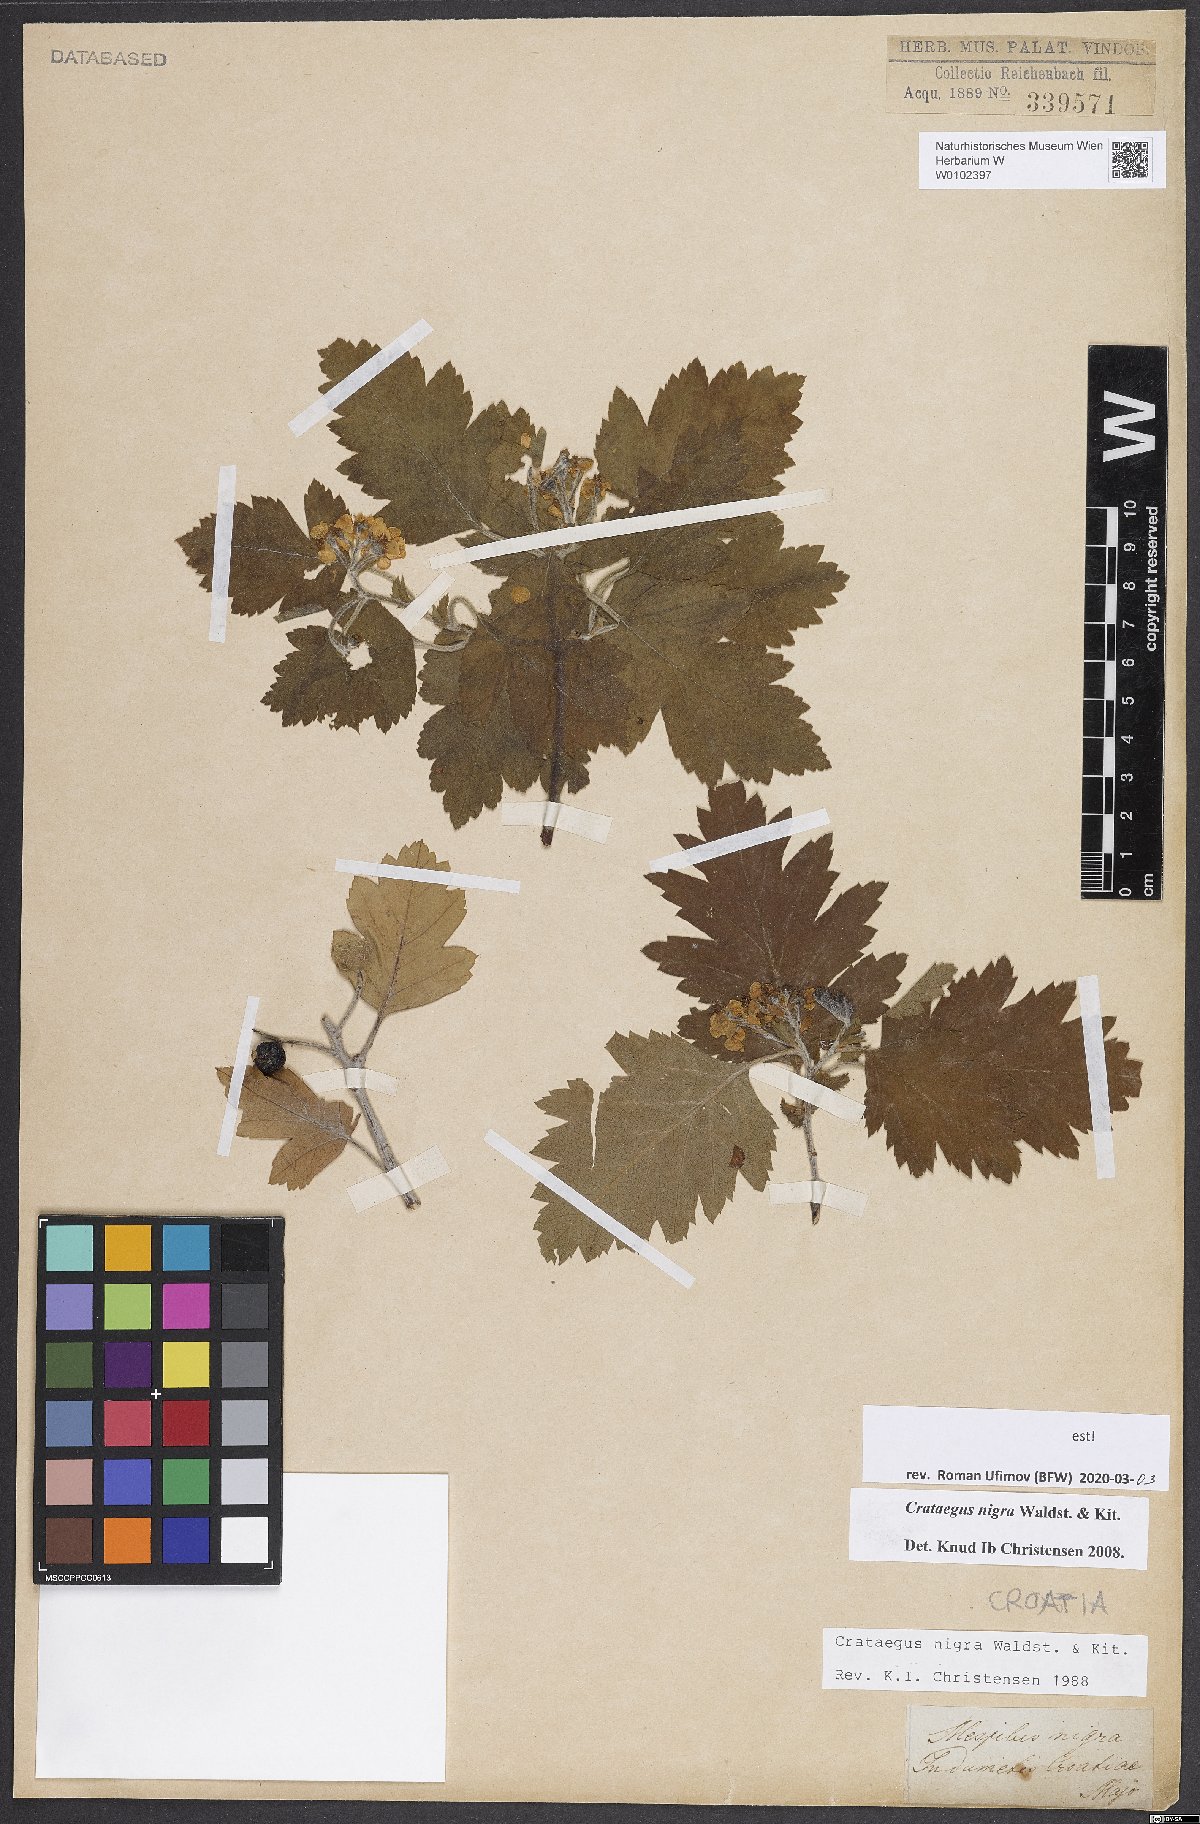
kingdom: Plantae
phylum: Tracheophyta
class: Magnoliopsida
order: Rosales
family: Rosaceae
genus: Crataegus
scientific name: Crataegus nigra
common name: Hungarian thorn
